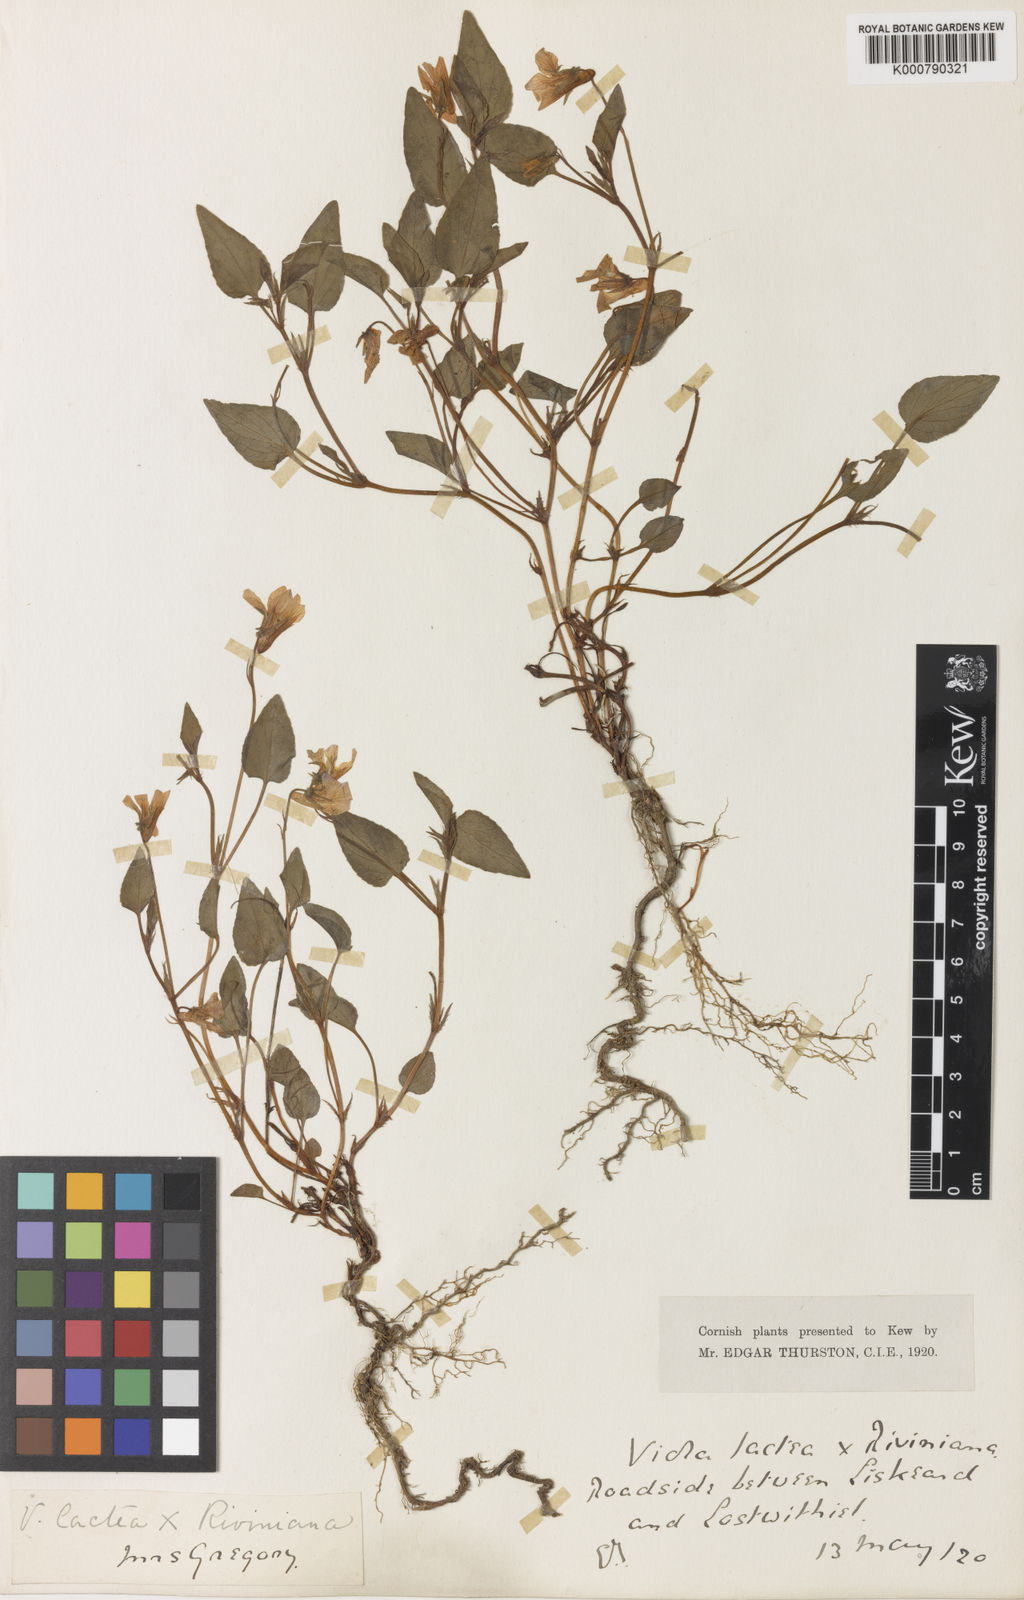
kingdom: Plantae
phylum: Tracheophyta
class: Magnoliopsida
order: Malpighiales
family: Violaceae
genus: Viola
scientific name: Viola lactea
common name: Pale dog-violet
